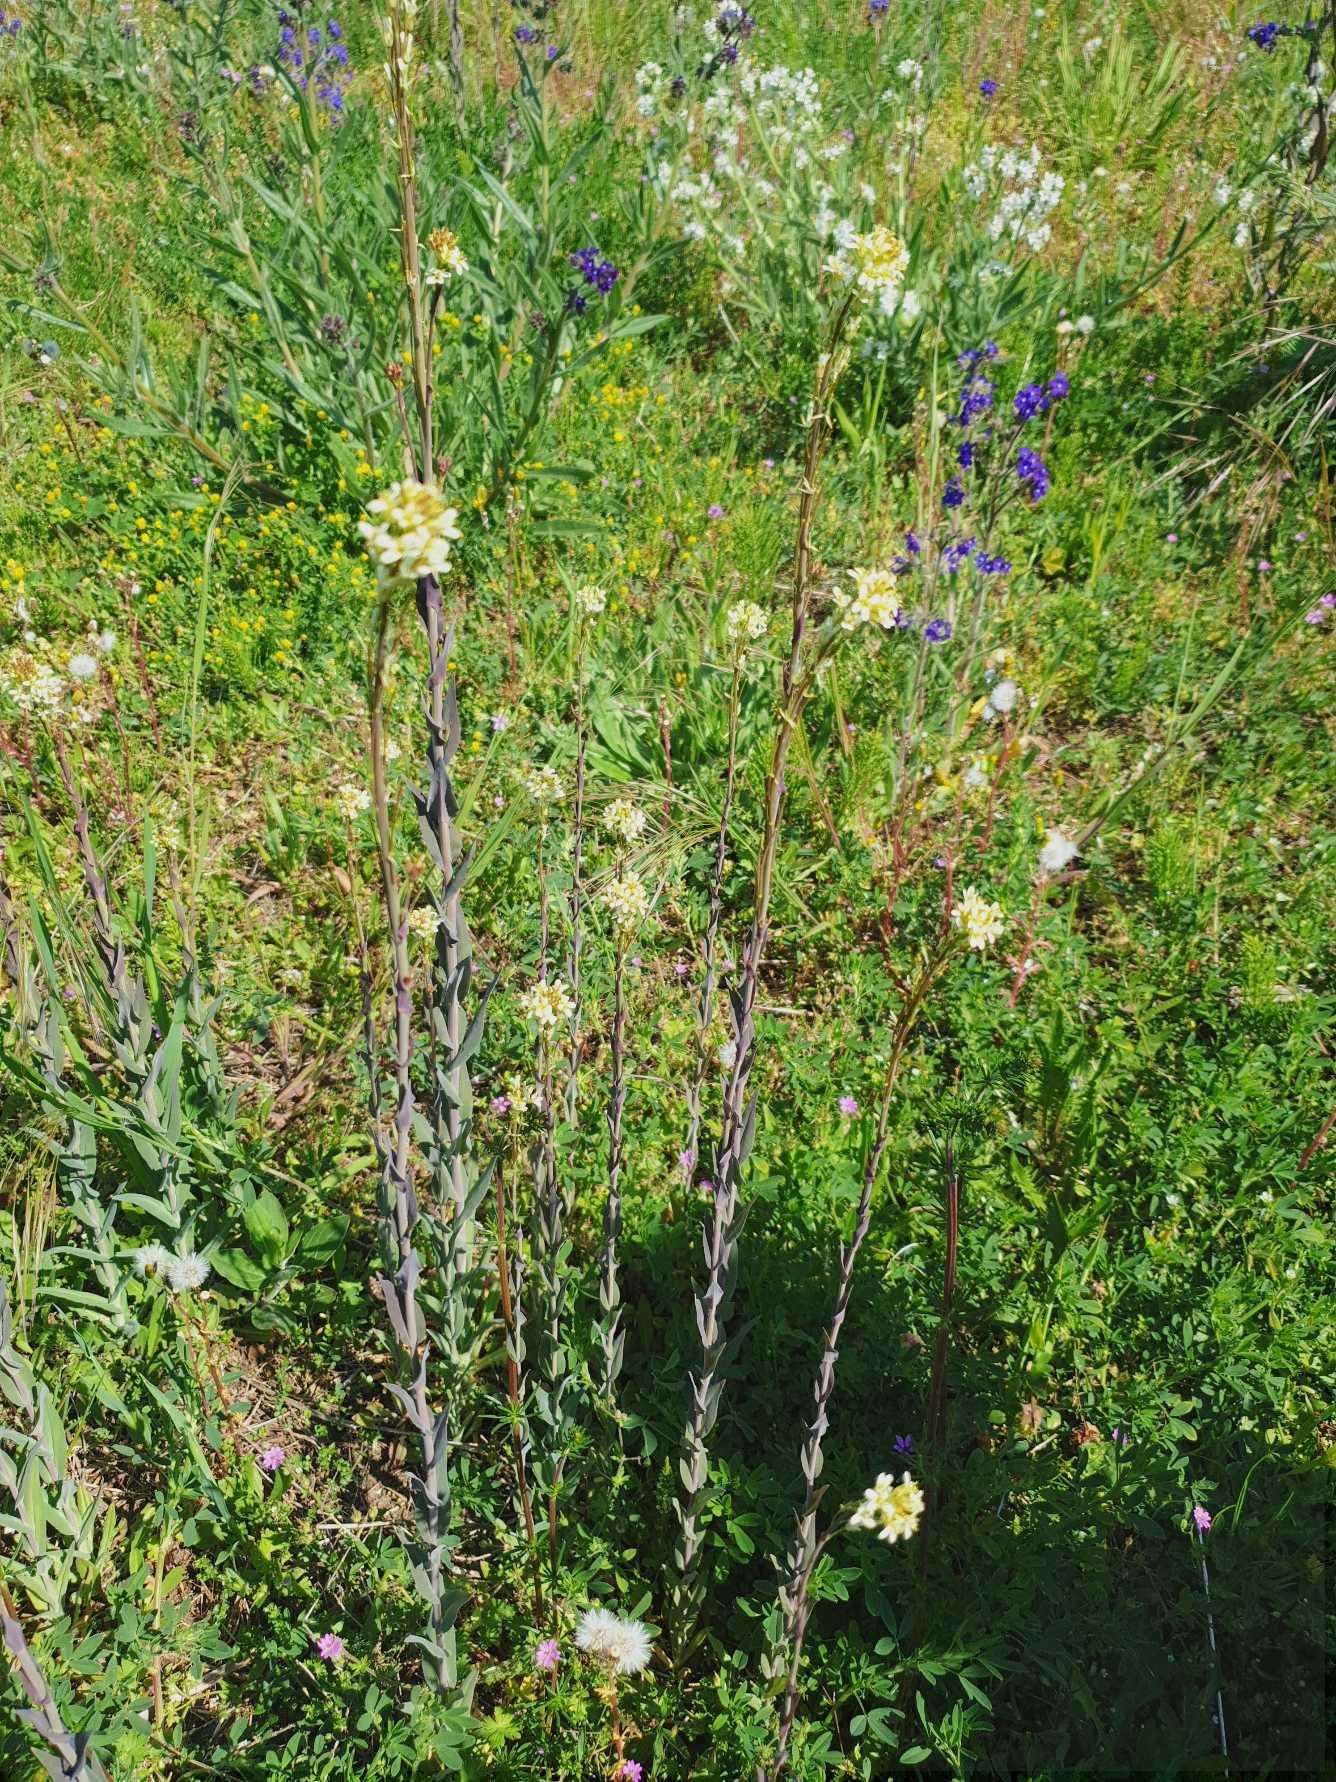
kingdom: Plantae
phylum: Tracheophyta
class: Magnoliopsida
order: Brassicales
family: Brassicaceae
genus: Turritis
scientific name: Turritis glabra
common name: Tårnurt
